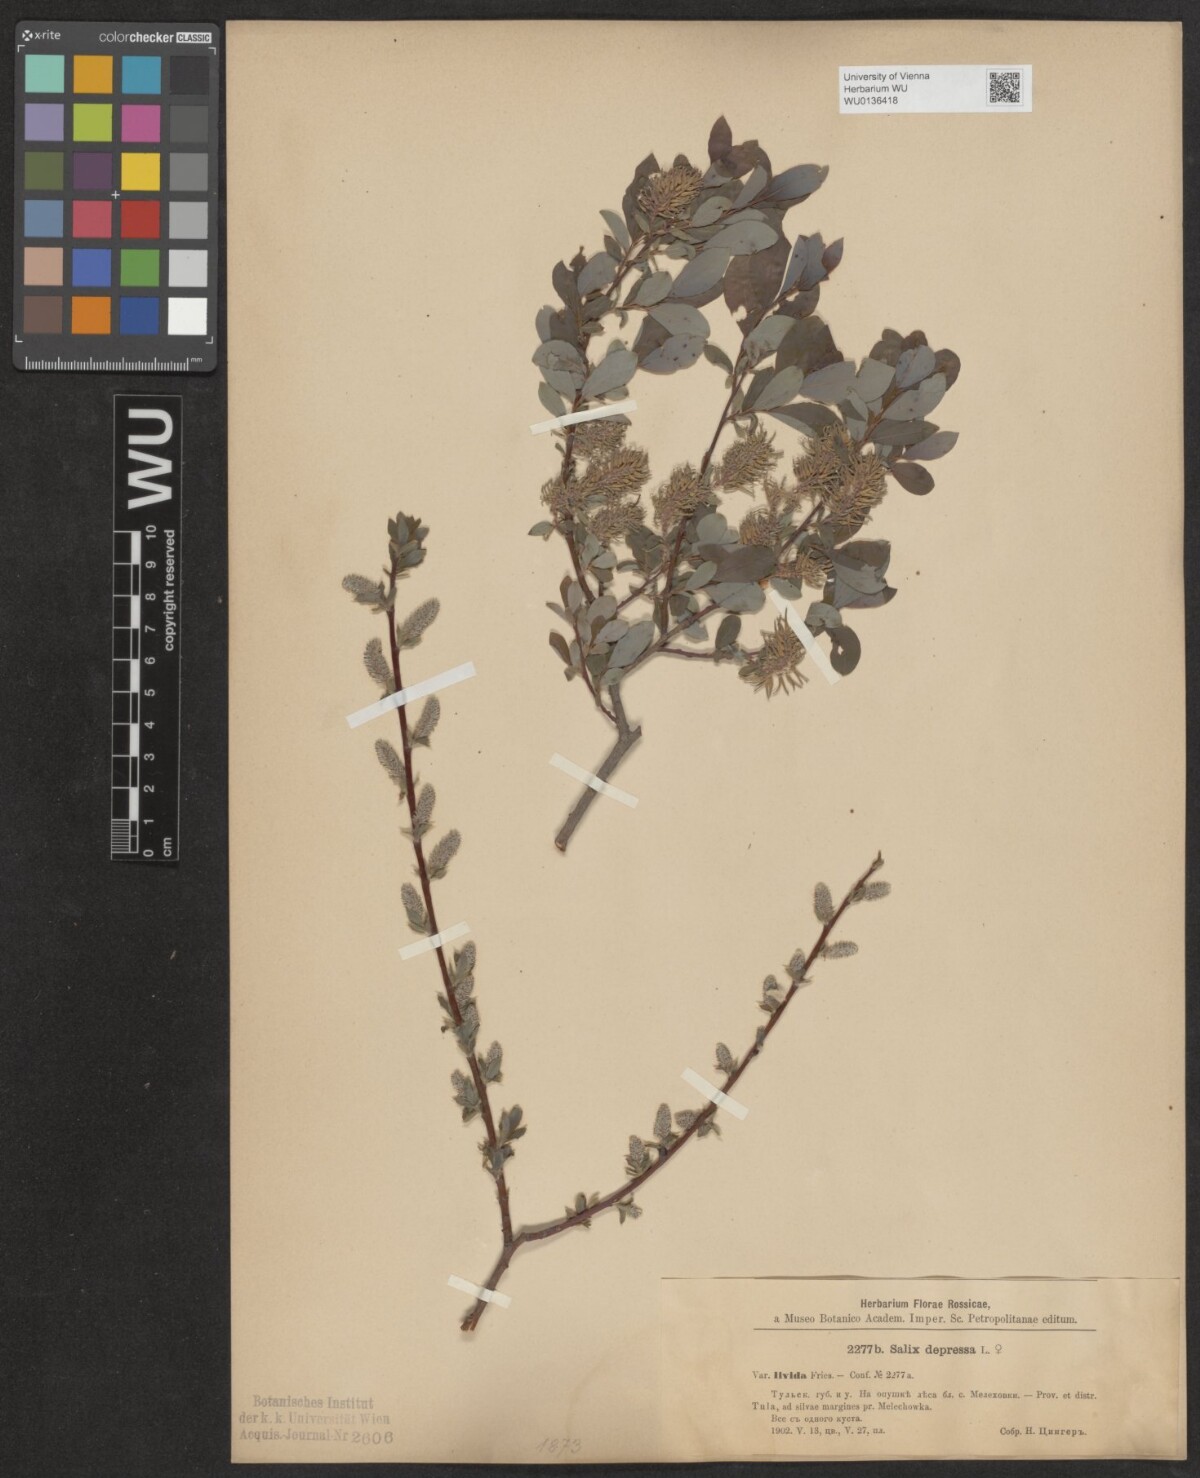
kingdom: Plantae
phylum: Tracheophyta
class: Magnoliopsida
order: Malpighiales
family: Salicaceae
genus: Salix
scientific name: Salix lanata
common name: Woolly willow
